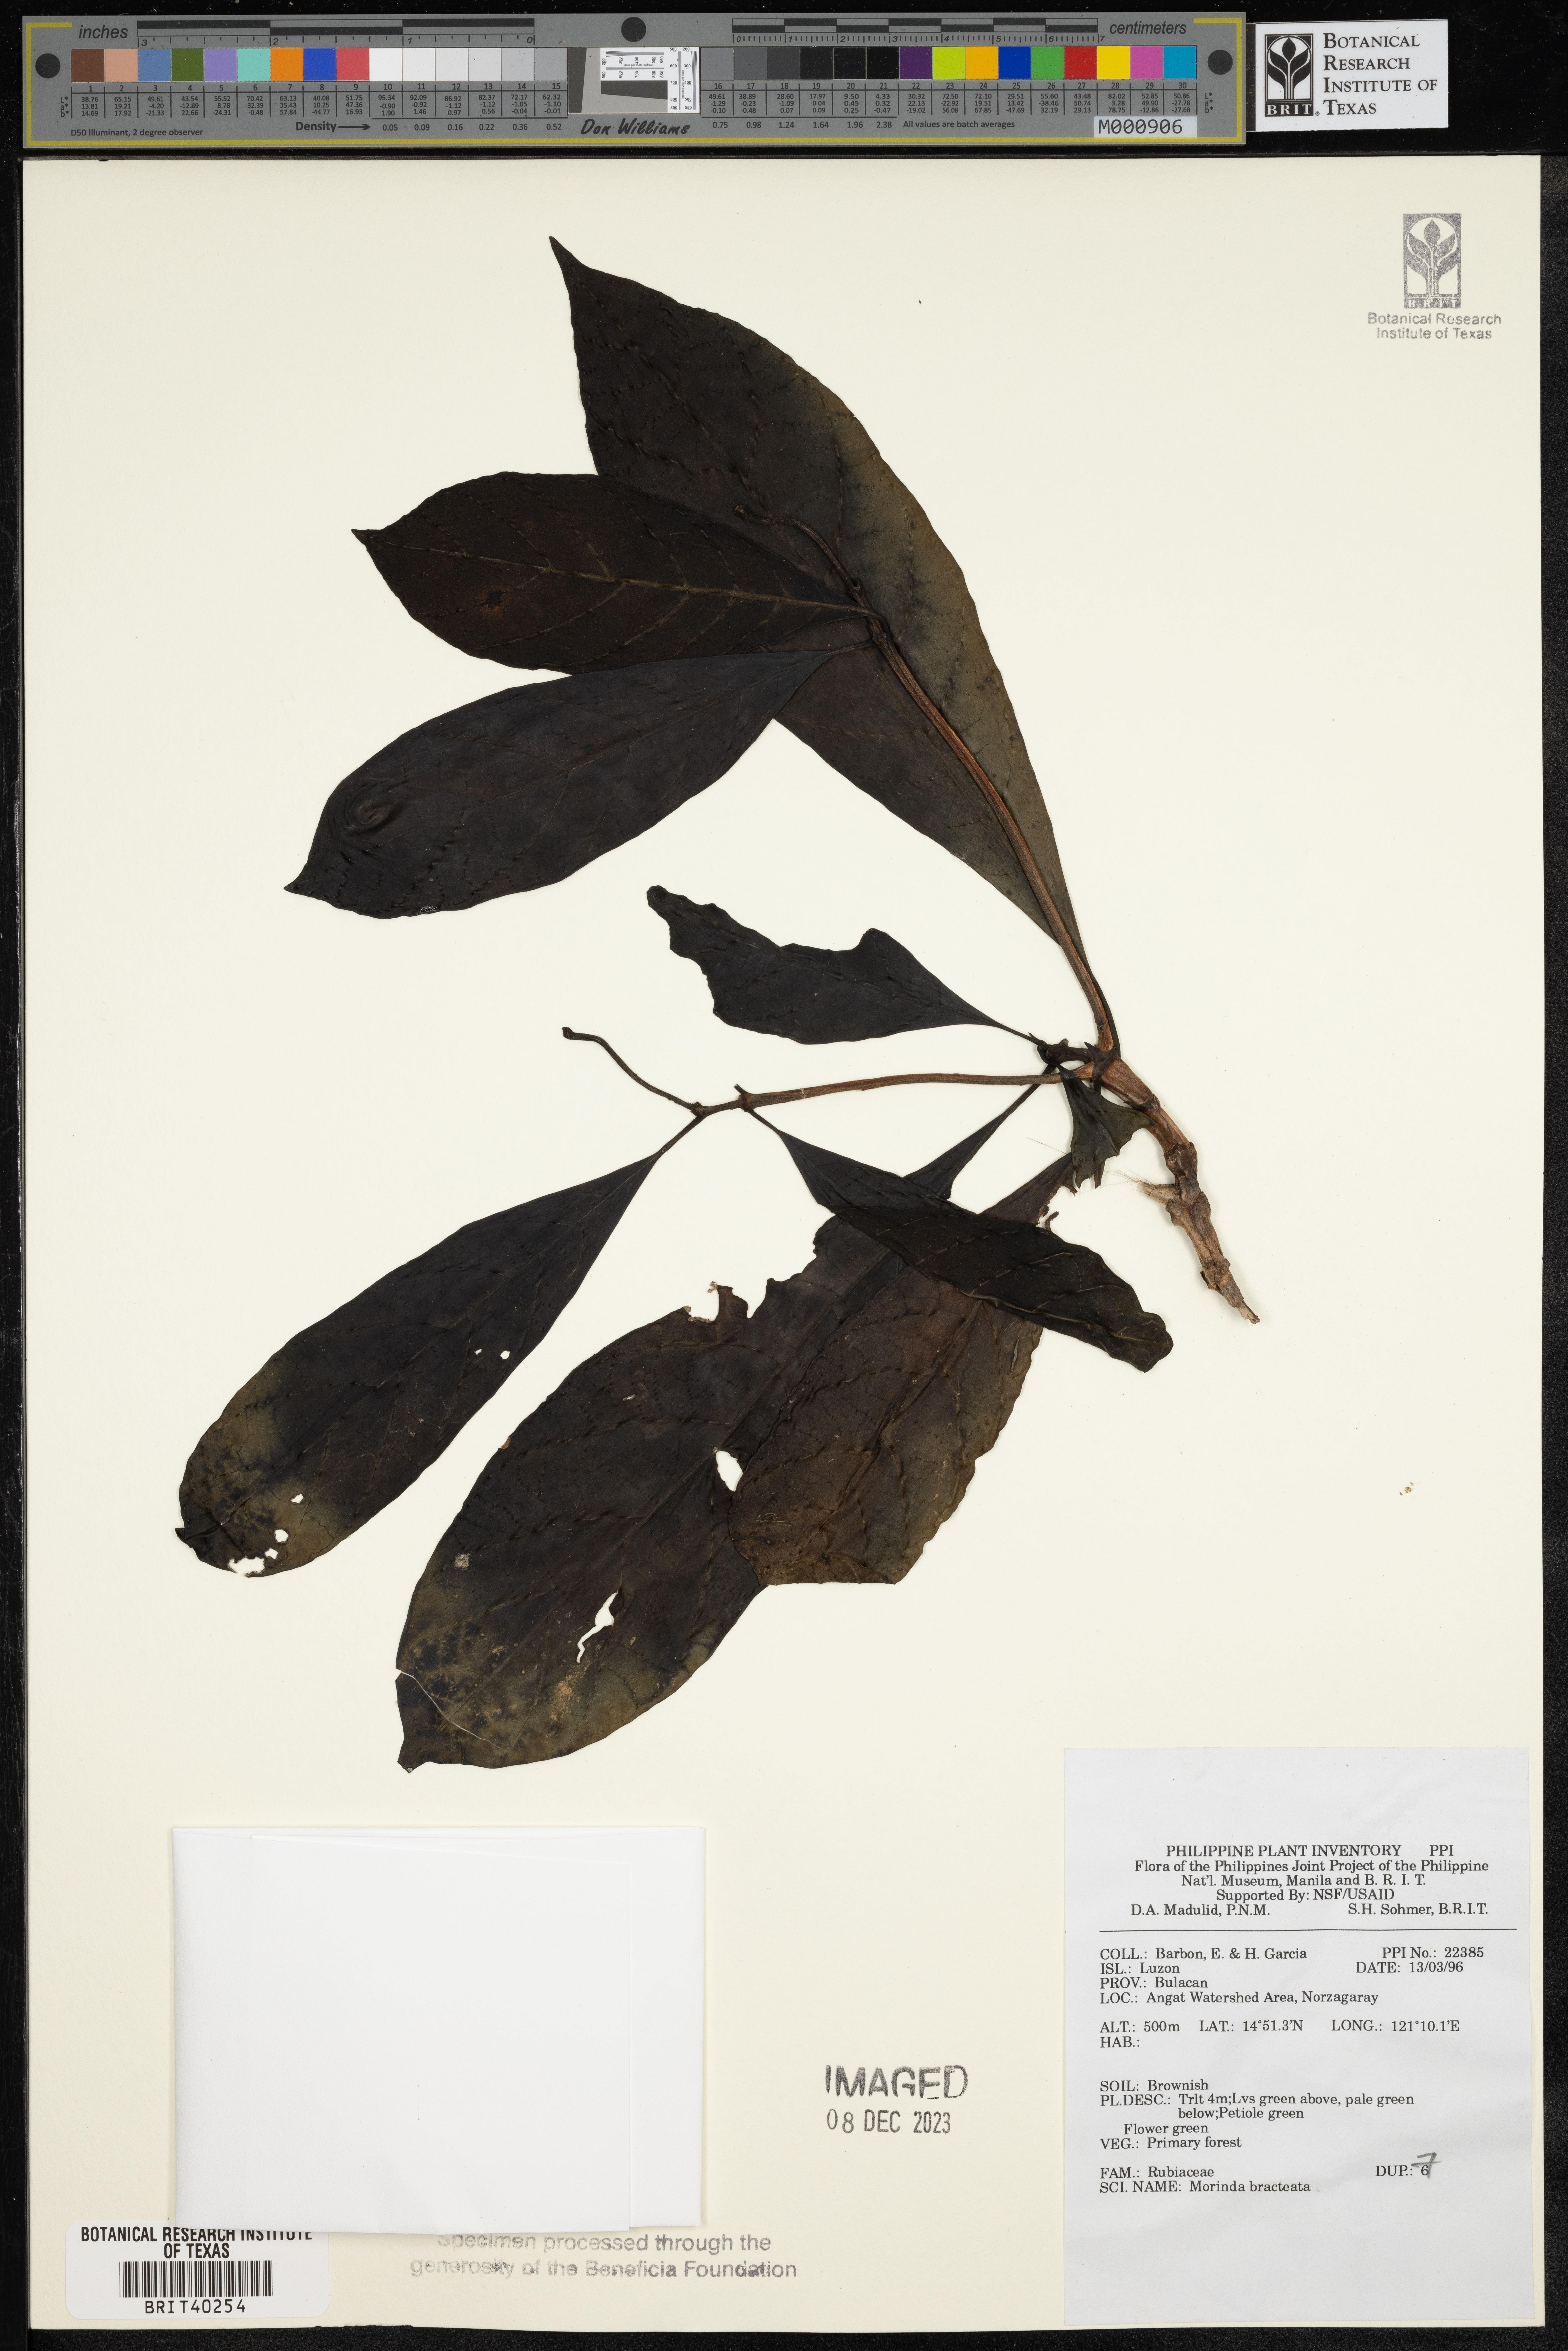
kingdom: Plantae
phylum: Tracheophyta
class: Magnoliopsida
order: Gentianales
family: Rubiaceae
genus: Morinda
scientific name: Morinda bracteata
